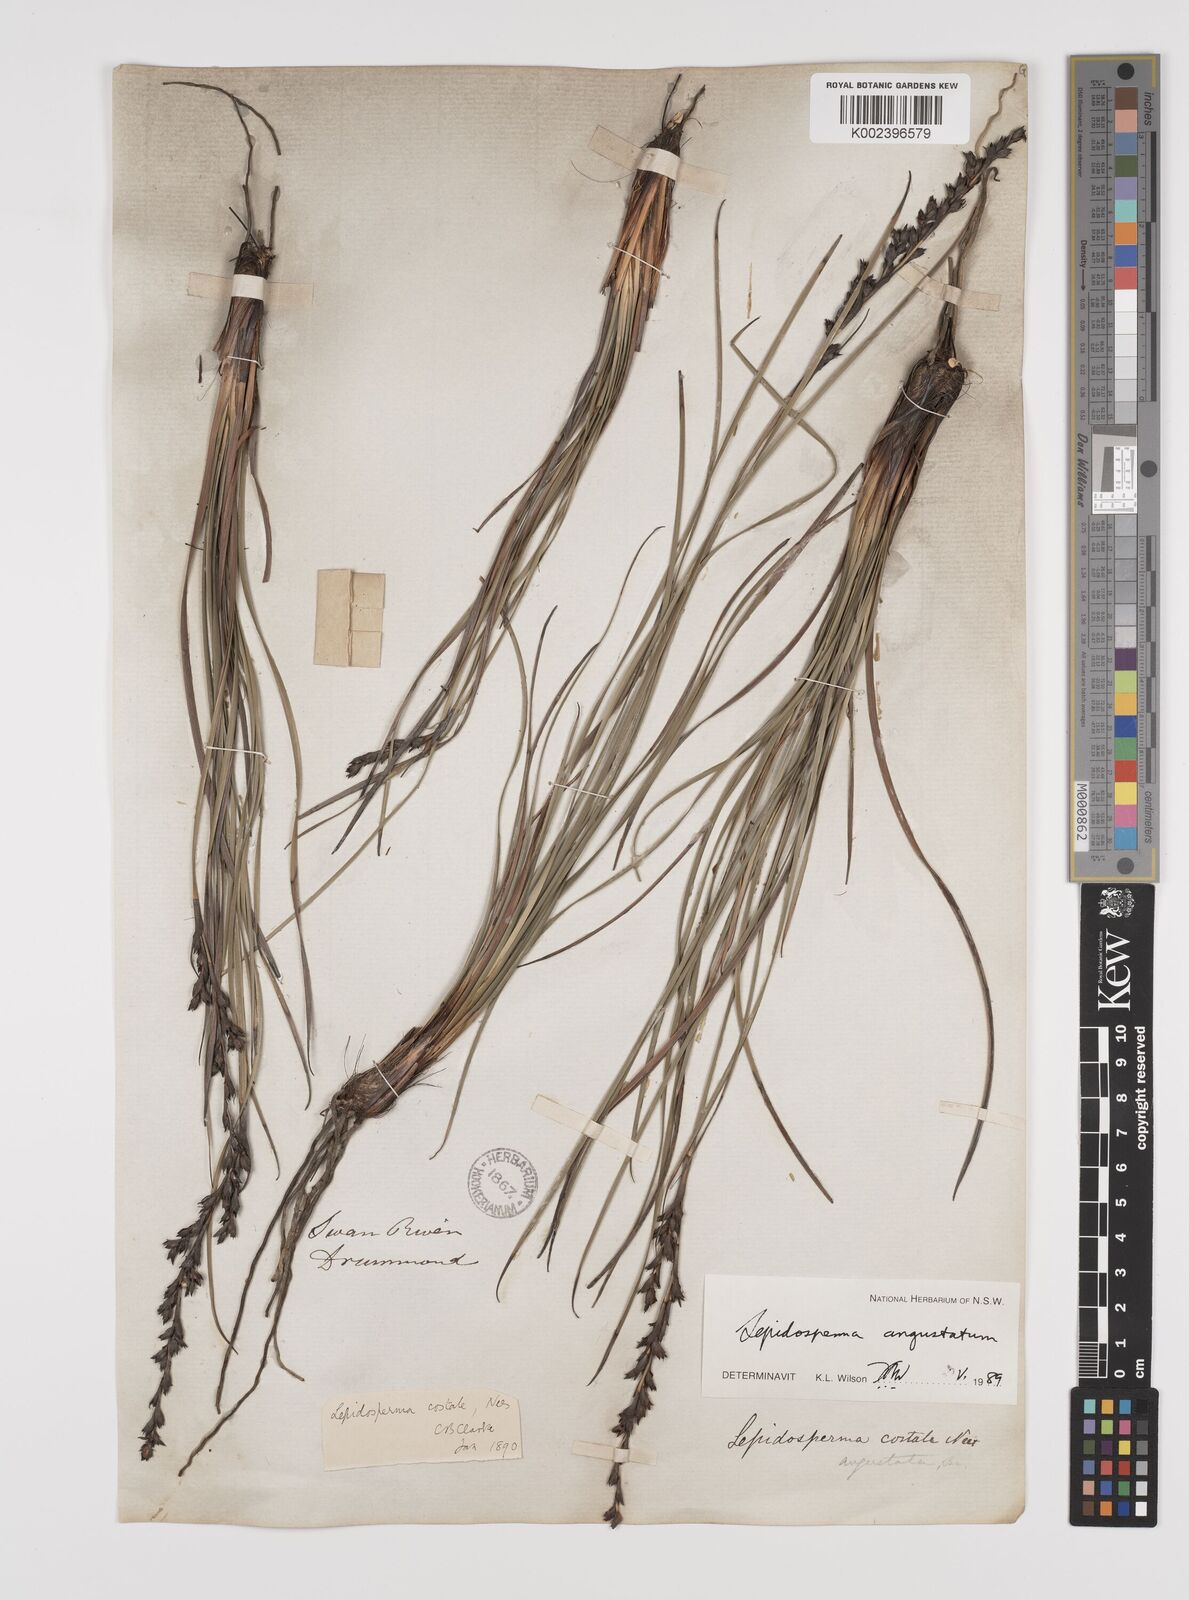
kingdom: Plantae
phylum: Tracheophyta
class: Liliopsida
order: Poales
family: Cyperaceae
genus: Lepidosperma
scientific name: Lepidosperma angustatum
